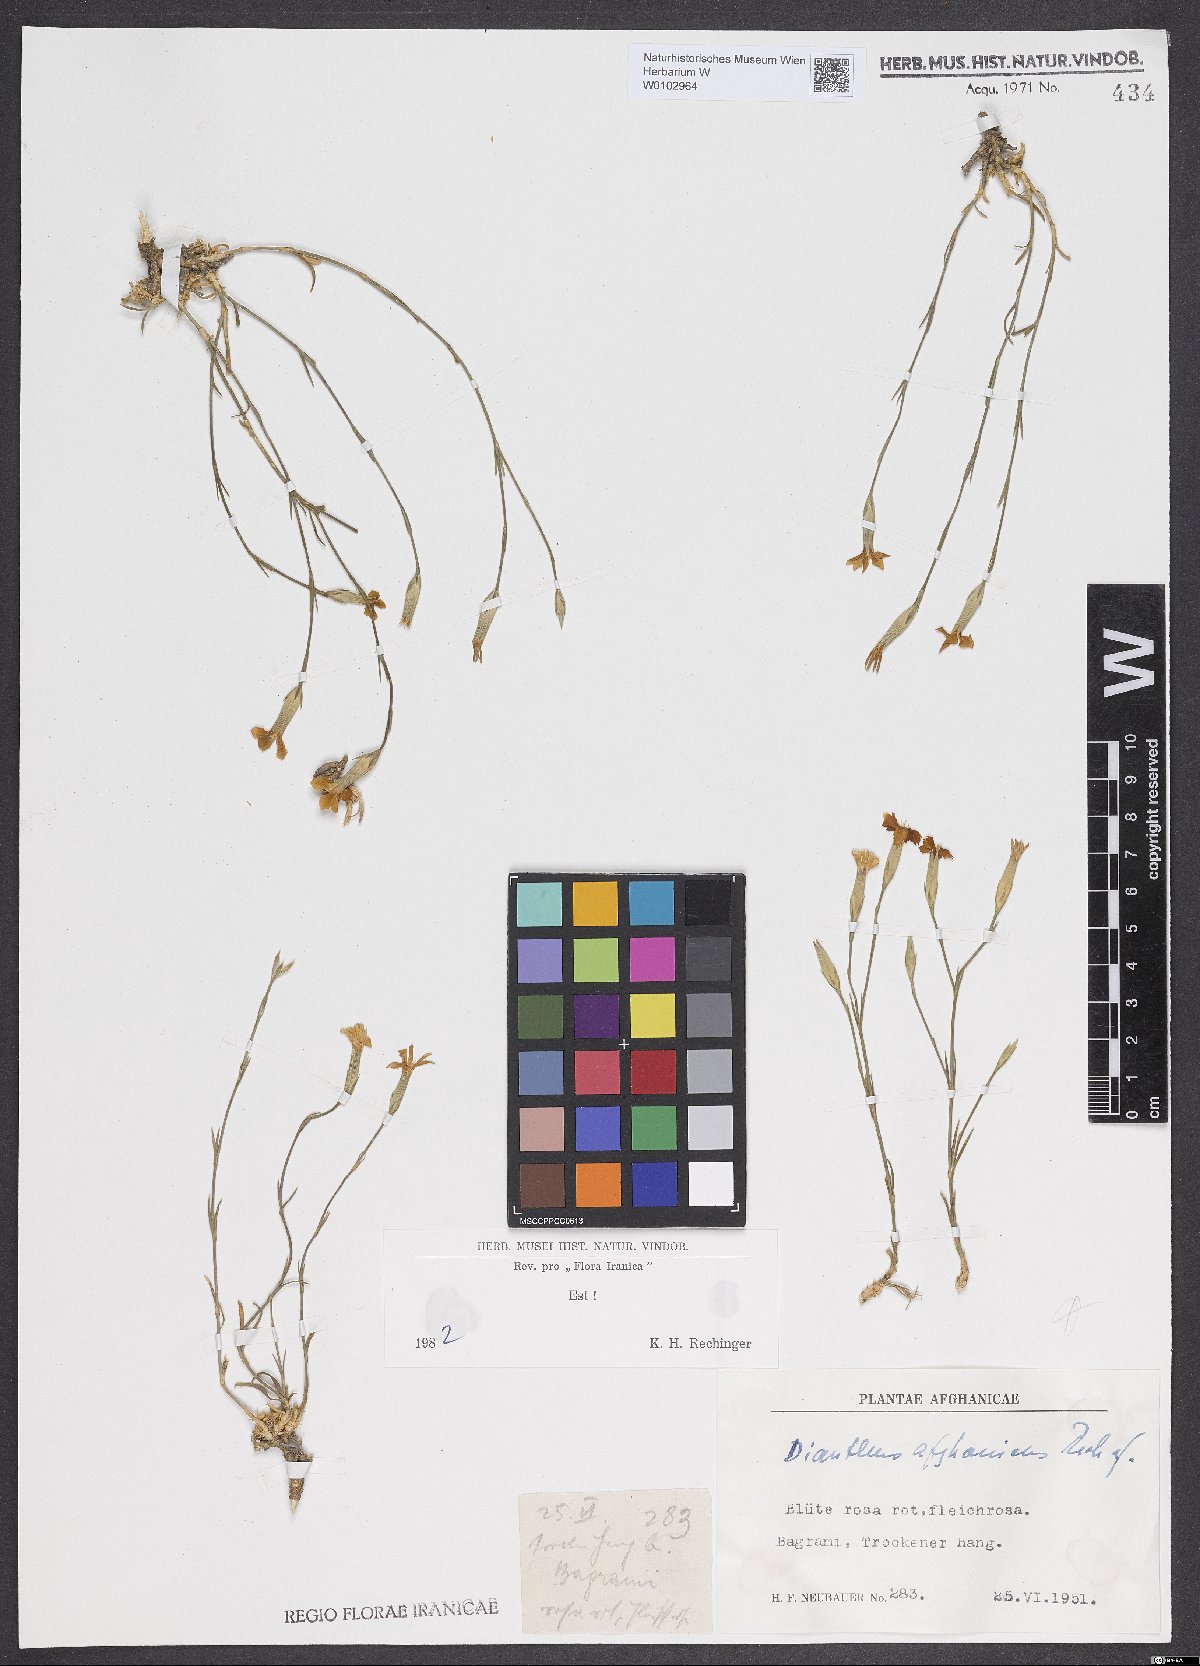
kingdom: Plantae
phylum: Tracheophyta
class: Magnoliopsida
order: Caryophyllales
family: Caryophyllaceae
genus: Dianthus
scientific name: Dianthus afghanicus
